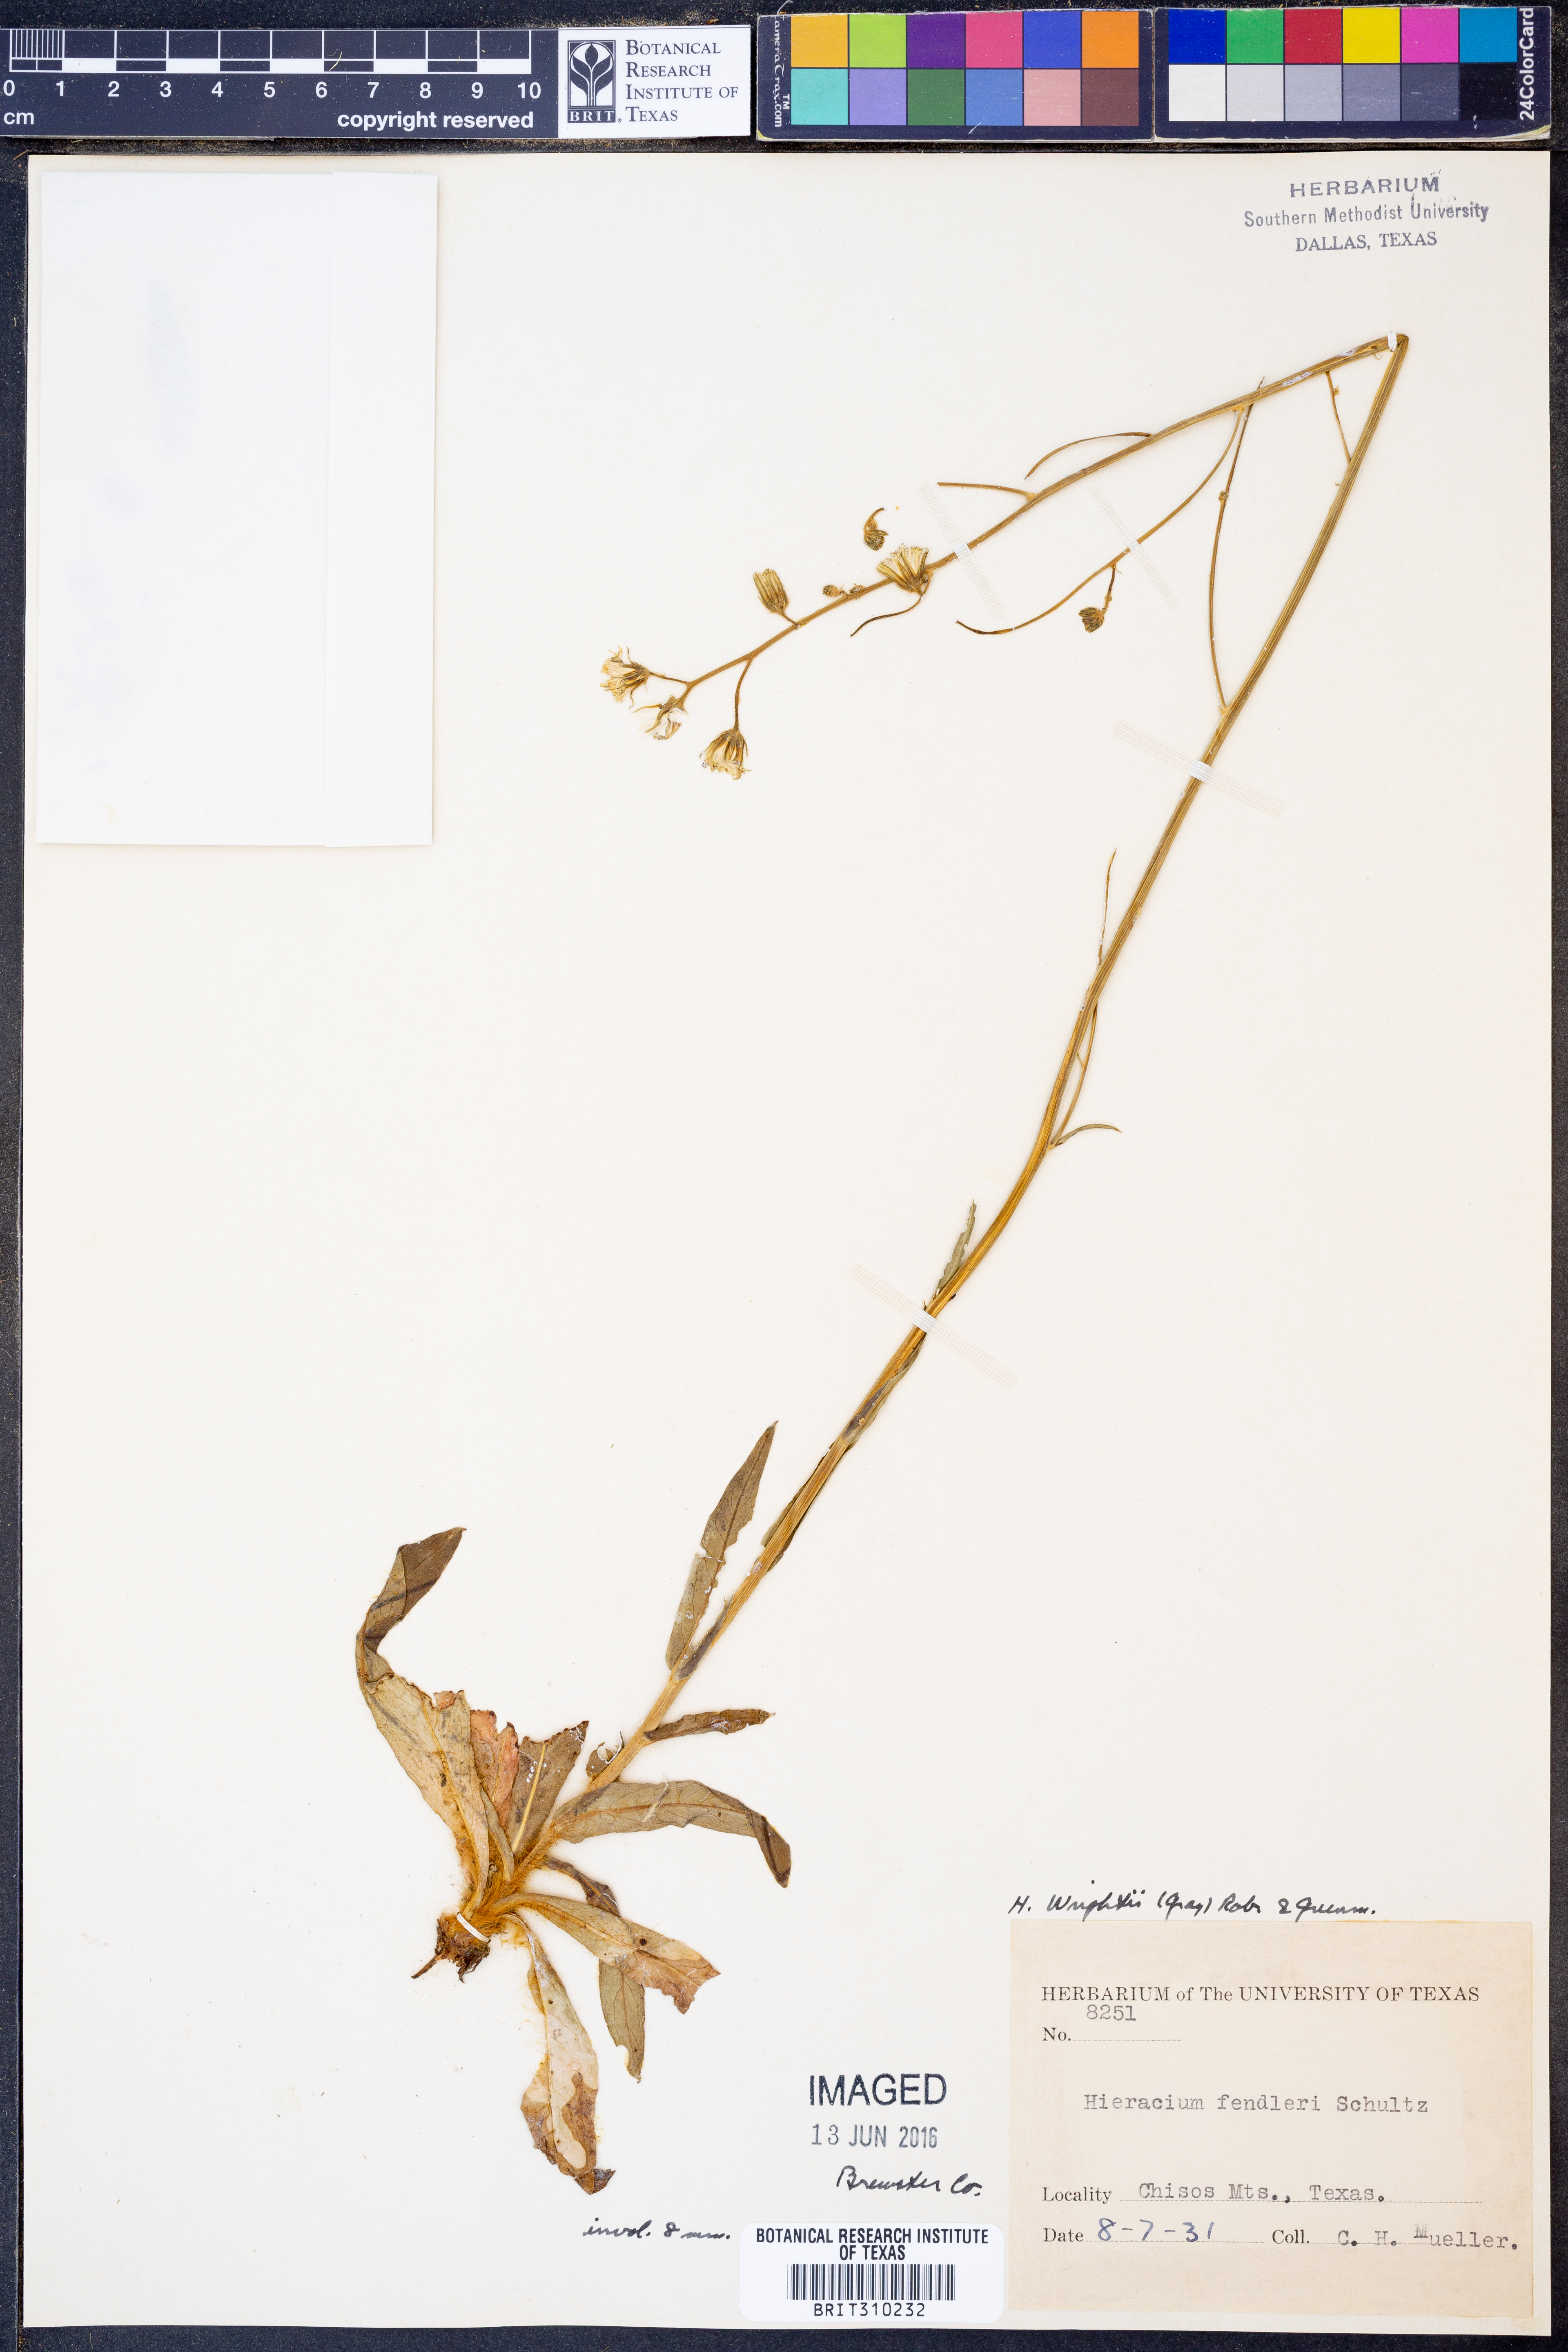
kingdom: Plantae
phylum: Tracheophyta
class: Magnoliopsida
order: Asterales
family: Asteraceae
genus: Hieracium
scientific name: Hieracium friesii
